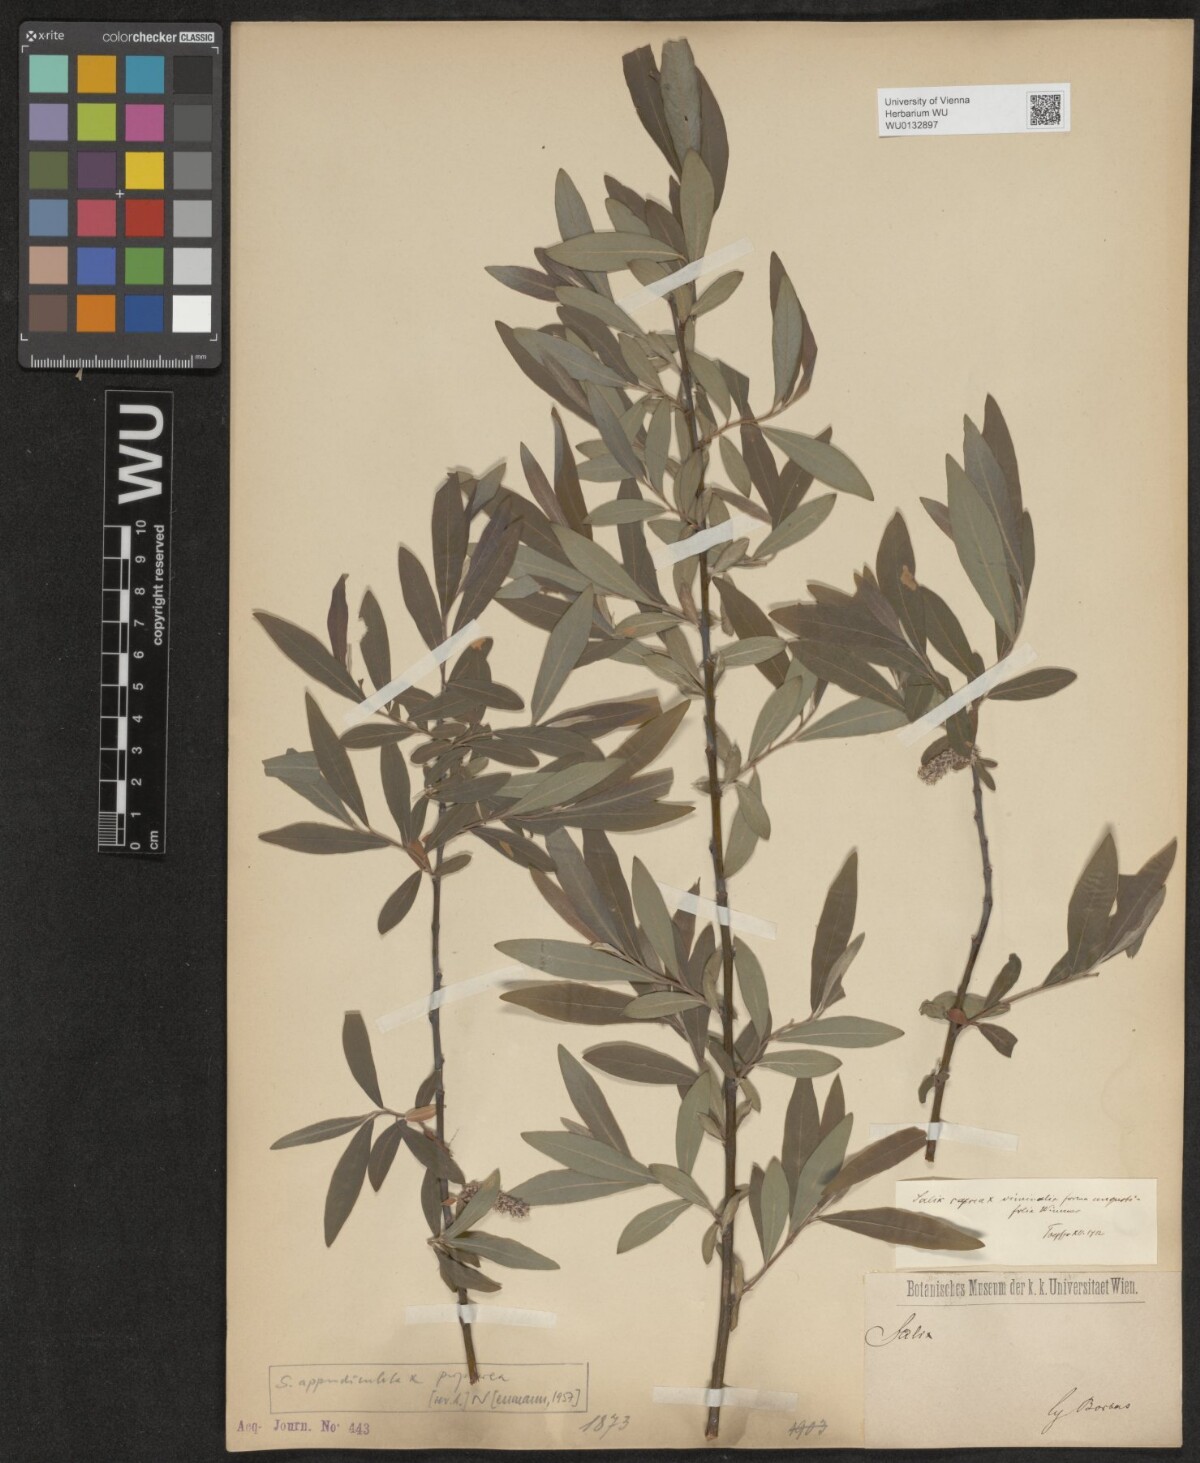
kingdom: Plantae
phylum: Tracheophyta
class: Magnoliopsida
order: Malpighiales
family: Salicaceae
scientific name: Salicaceae
